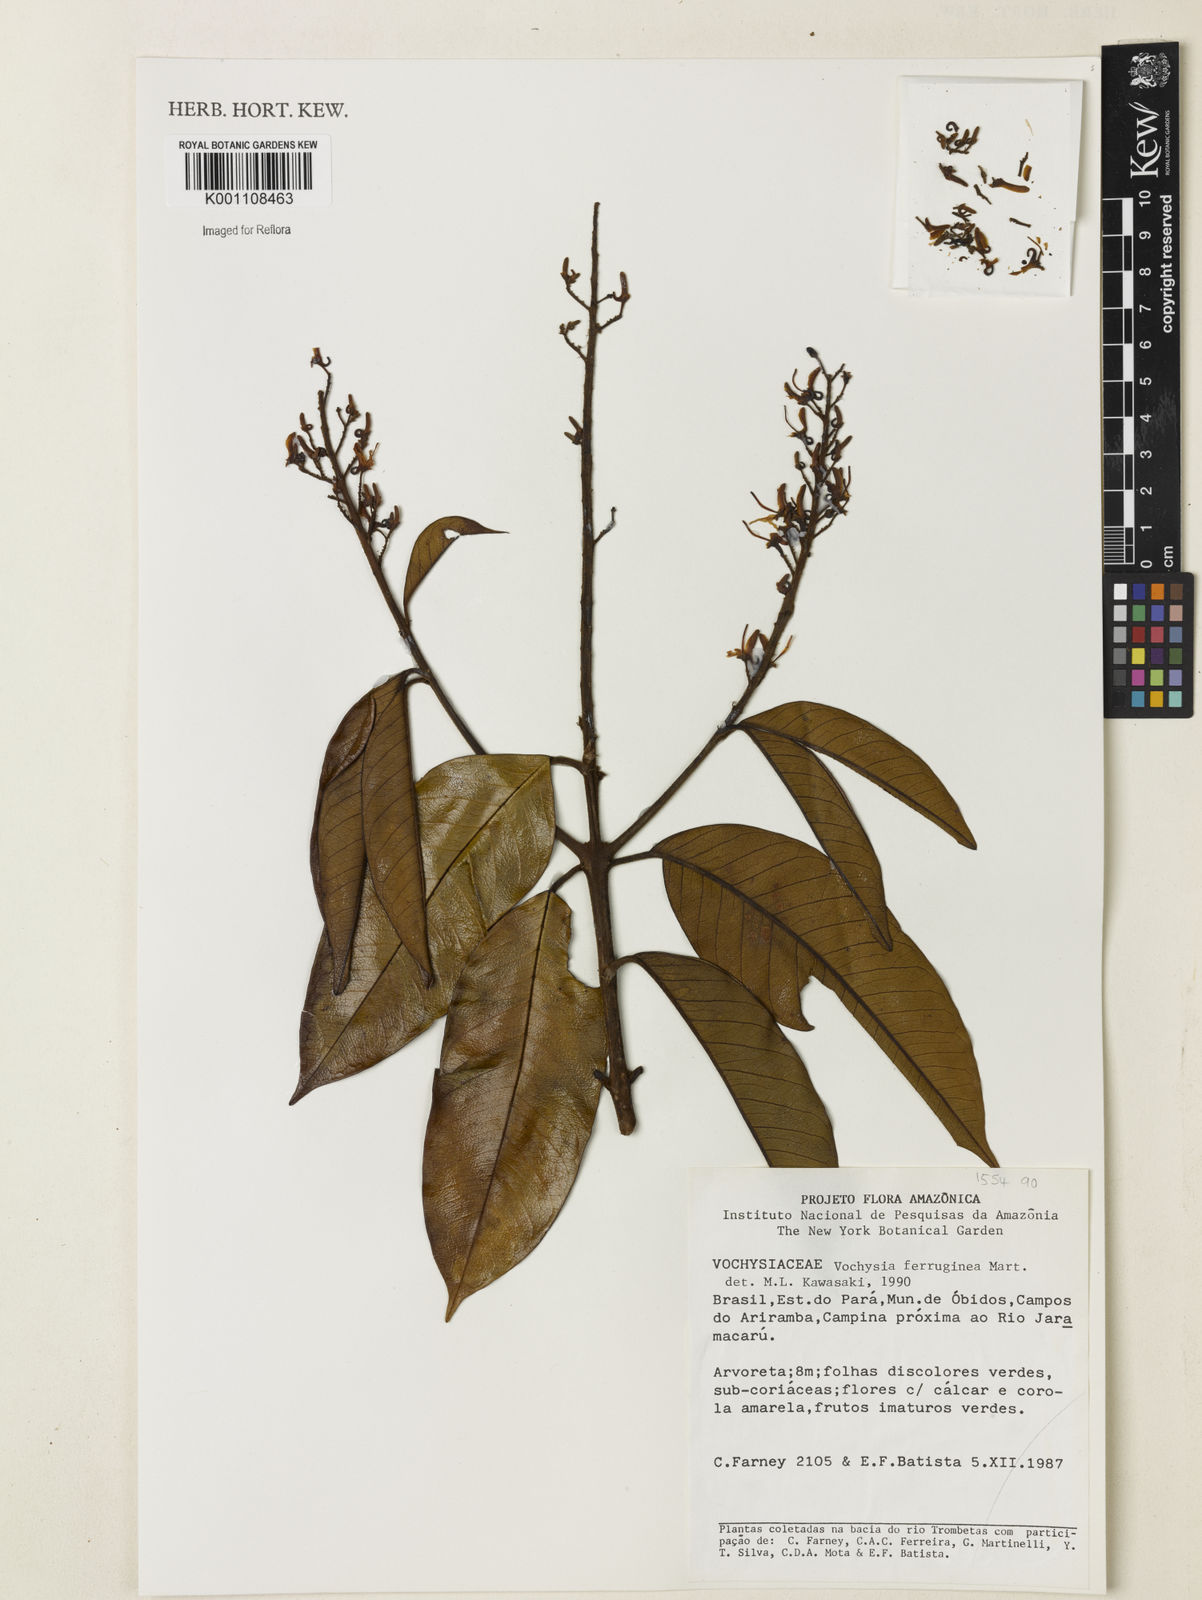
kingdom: Plantae
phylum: Tracheophyta
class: Magnoliopsida
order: Myrtales
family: Vochysiaceae
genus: Vochysia
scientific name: Vochysia ferruginea
